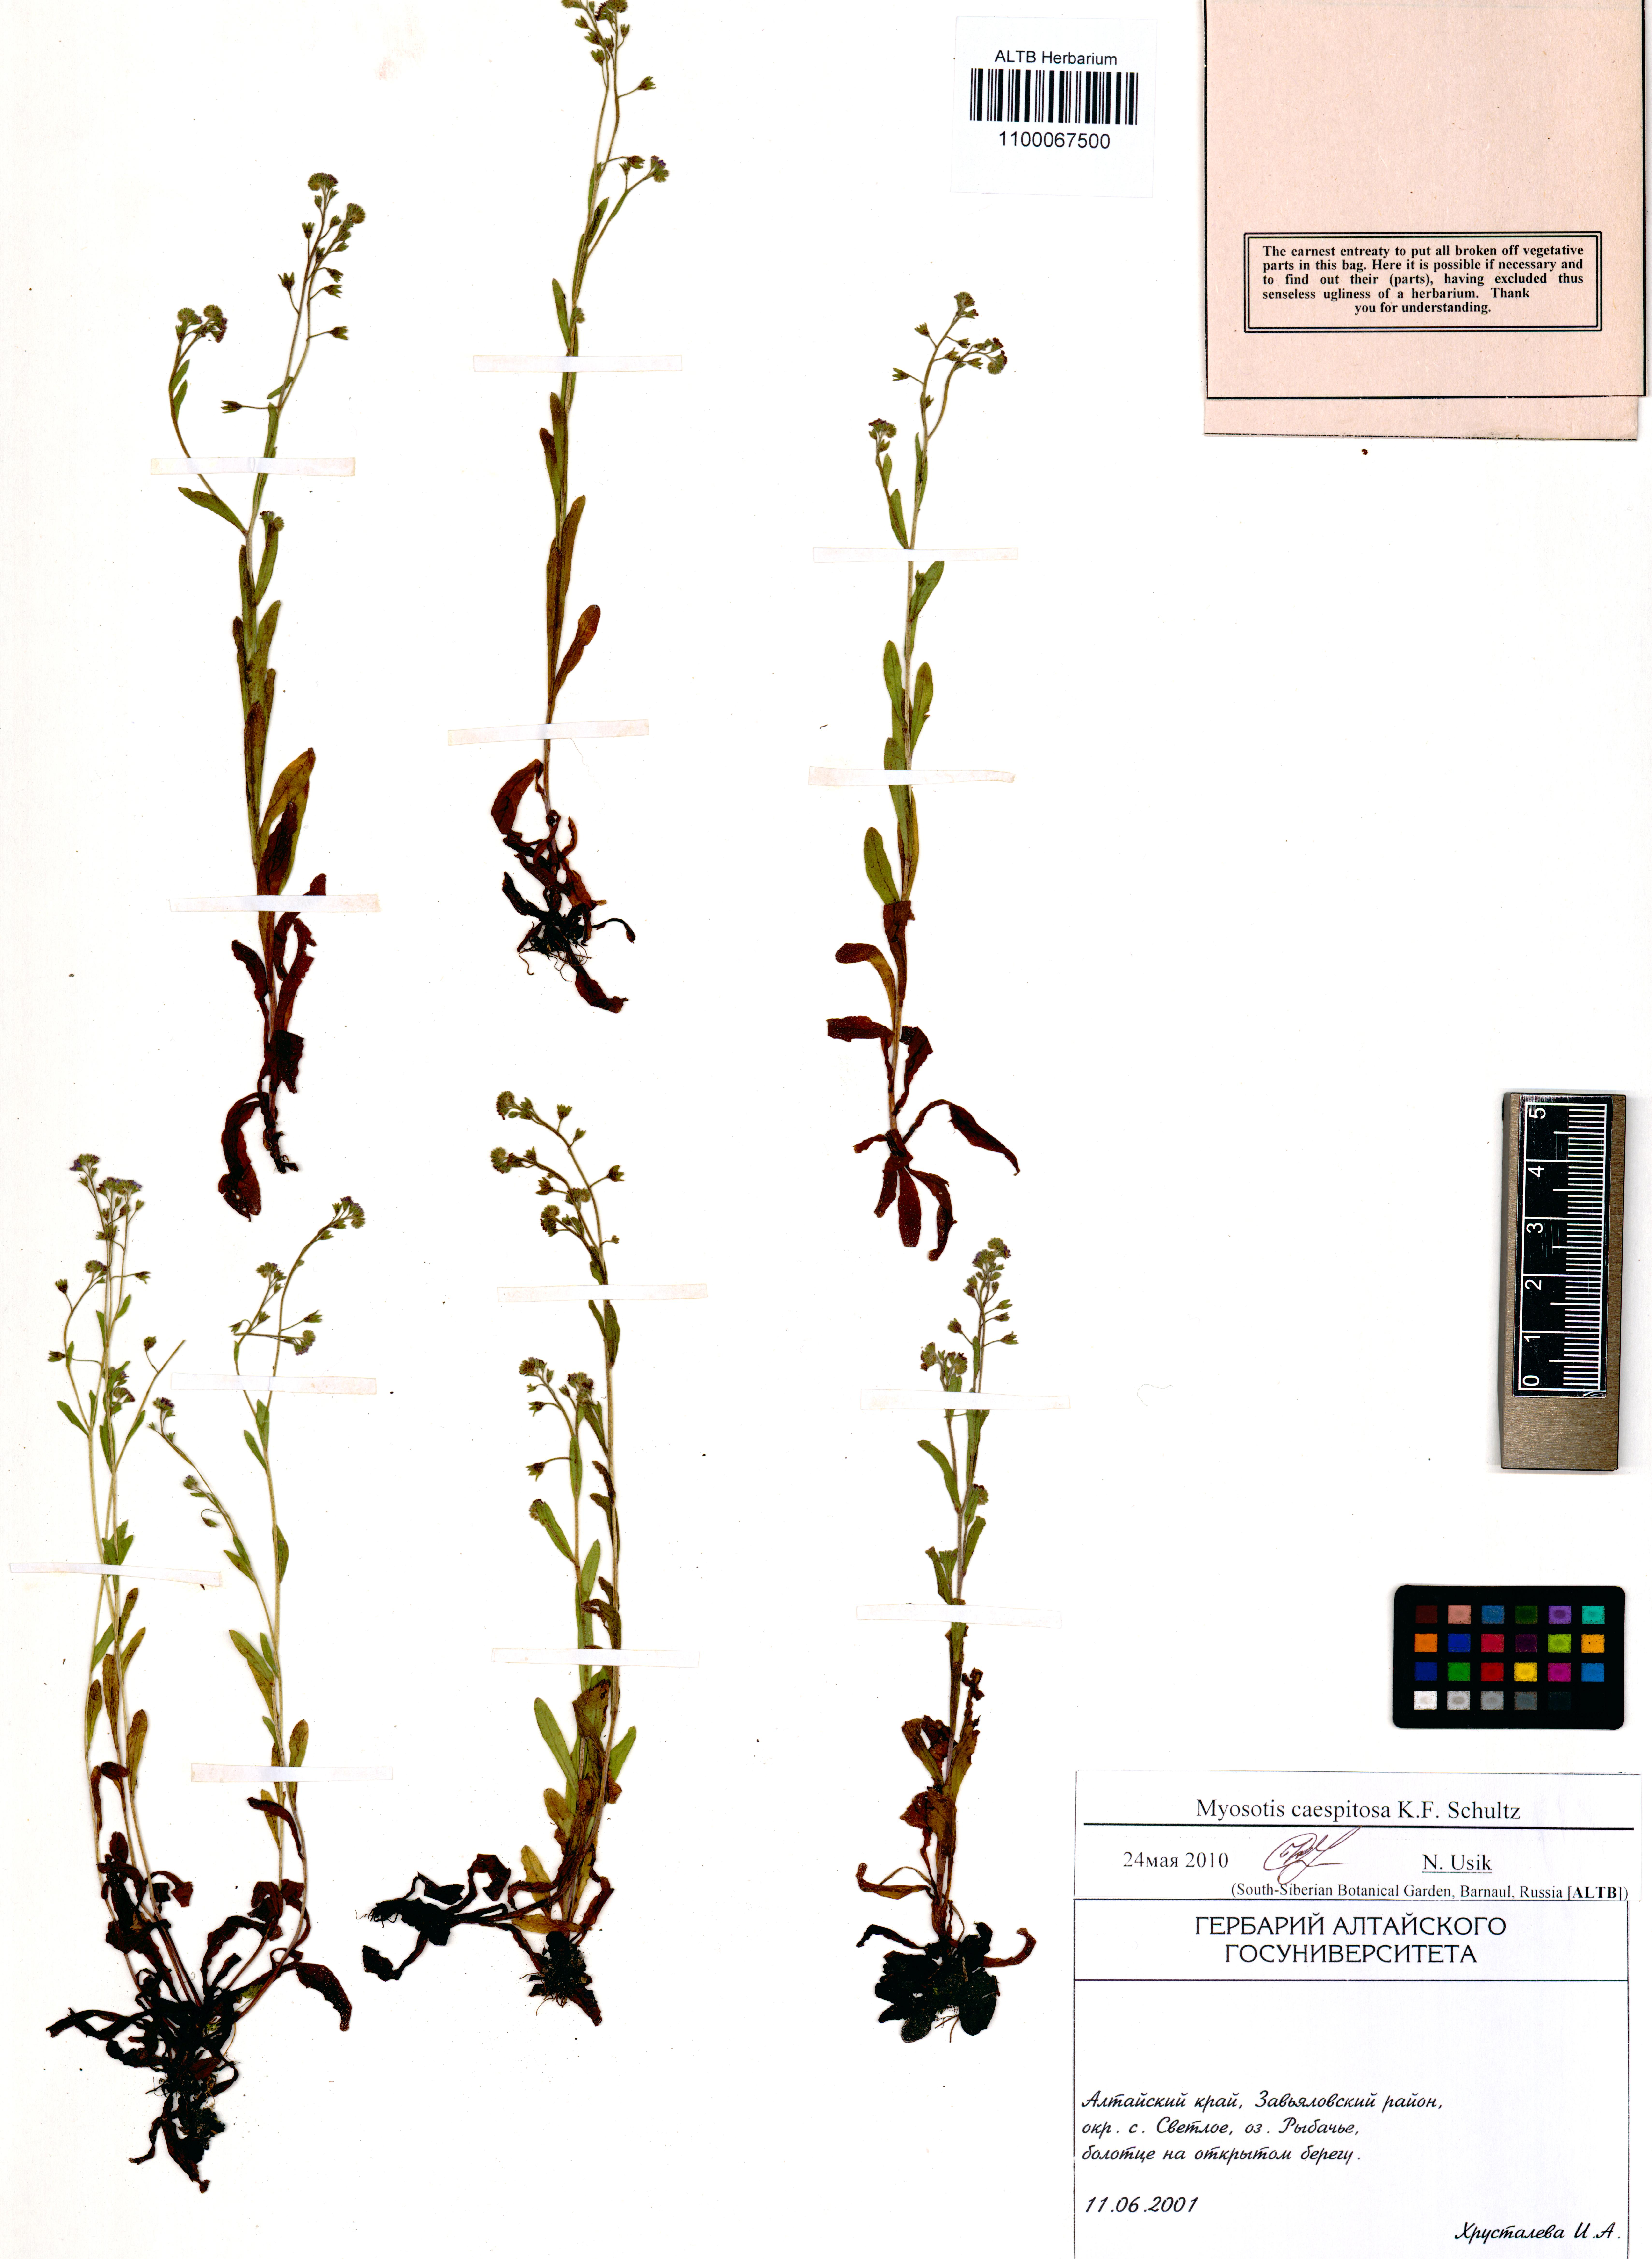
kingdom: Plantae
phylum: Tracheophyta
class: Magnoliopsida
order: Boraginales
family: Boraginaceae
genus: Myosotis
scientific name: Myosotis laxa
